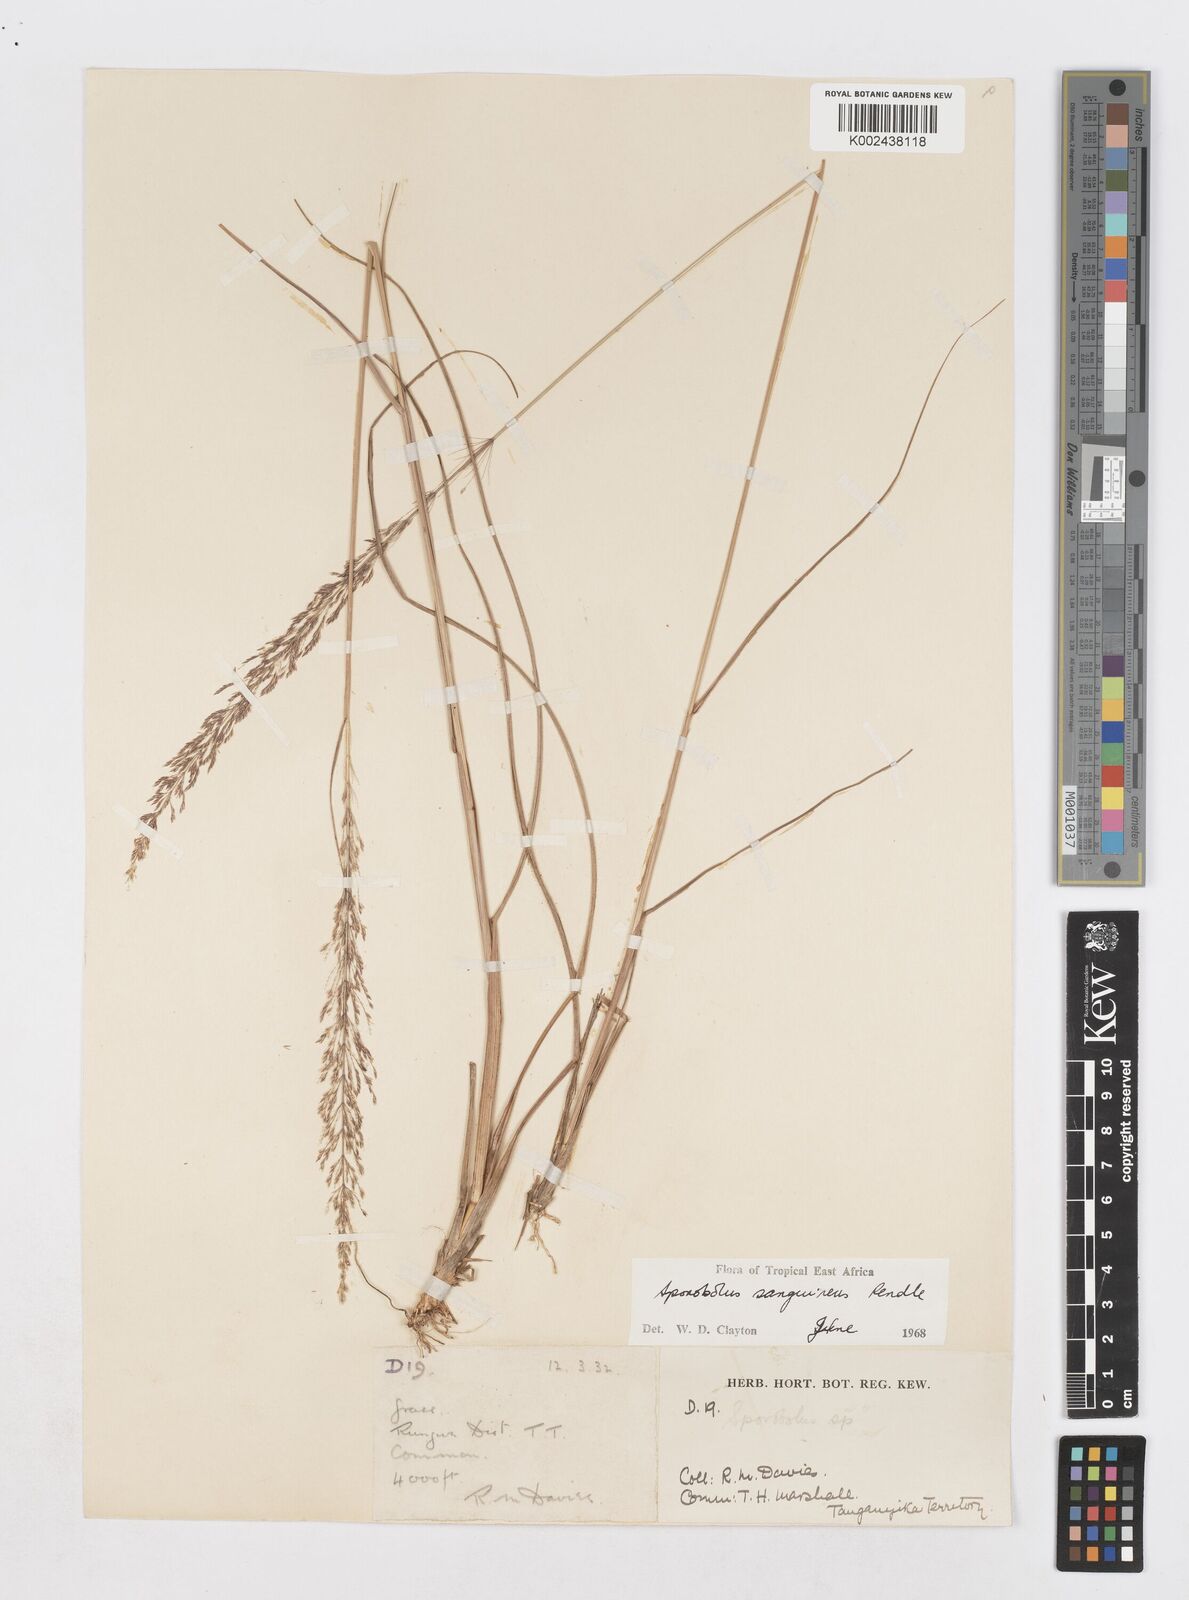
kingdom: Plantae
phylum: Tracheophyta
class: Liliopsida
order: Poales
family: Poaceae
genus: Sporobolus
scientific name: Sporobolus sanguineus
